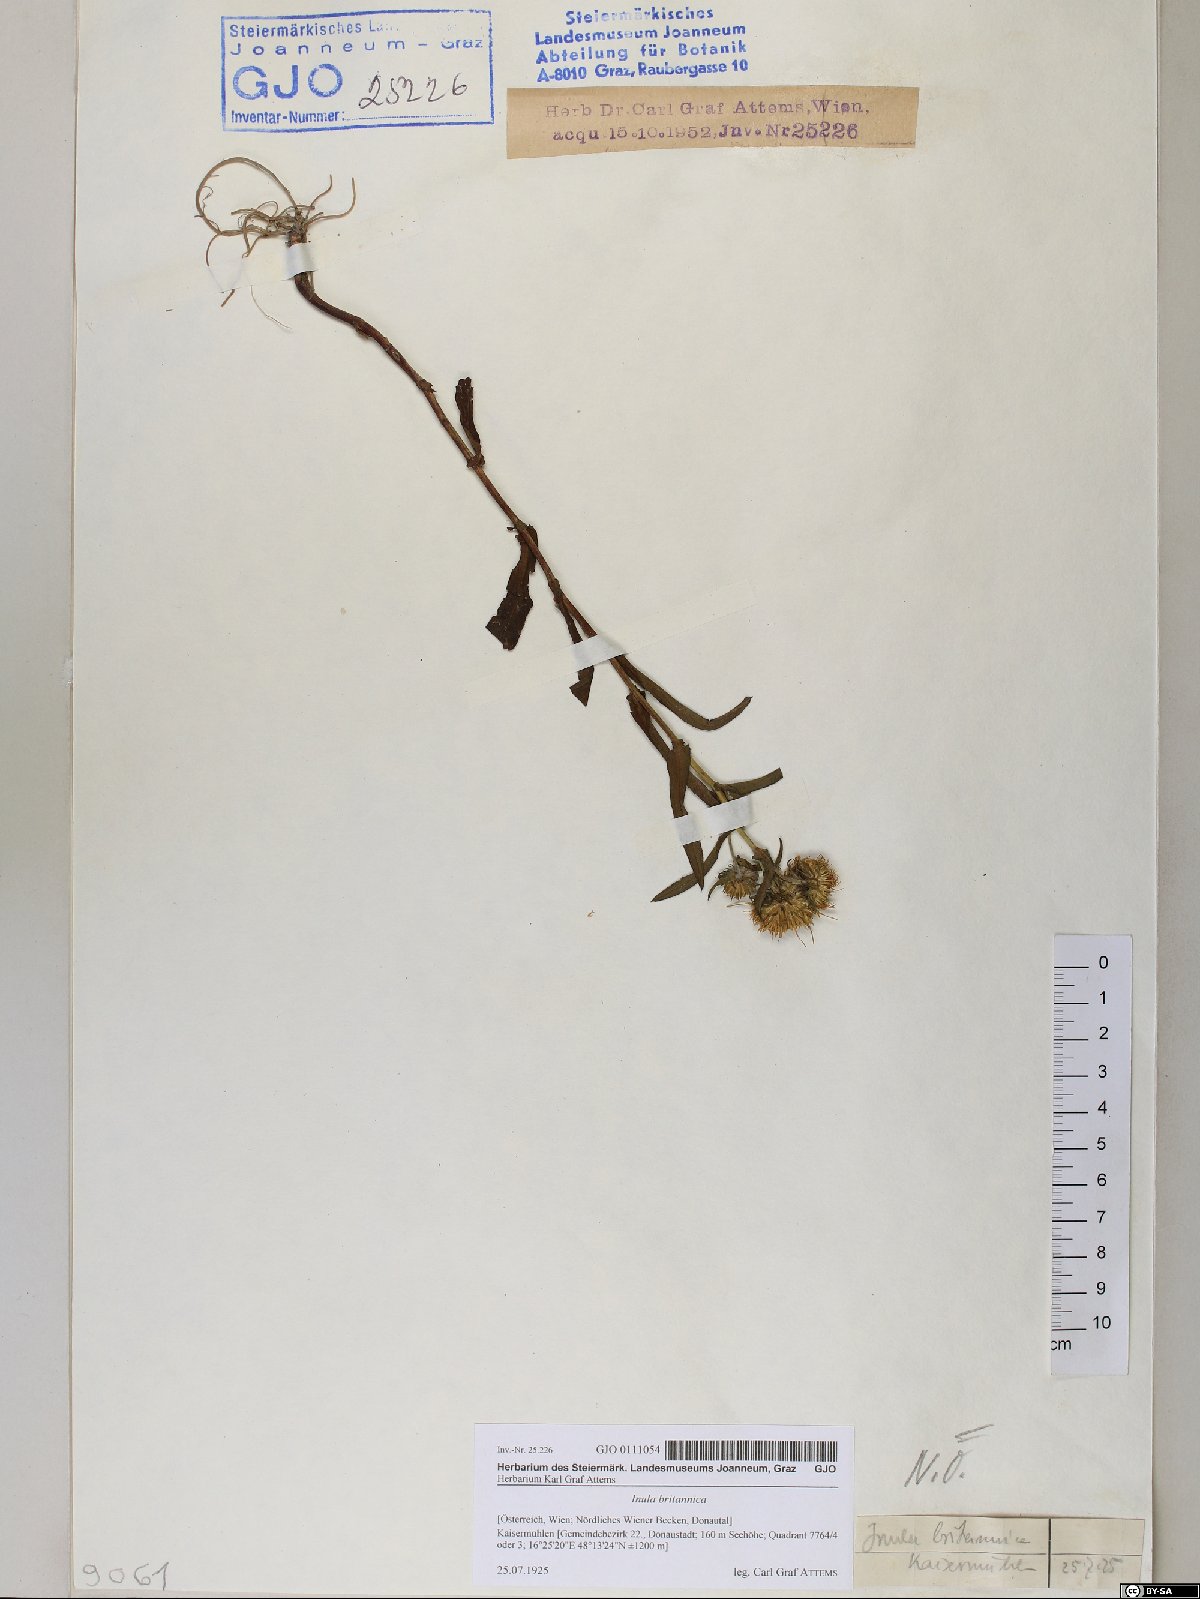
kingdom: Plantae
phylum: Tracheophyta
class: Magnoliopsida
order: Asterales
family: Asteraceae
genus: Pentanema
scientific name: Pentanema britannicum
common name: British elecampane
